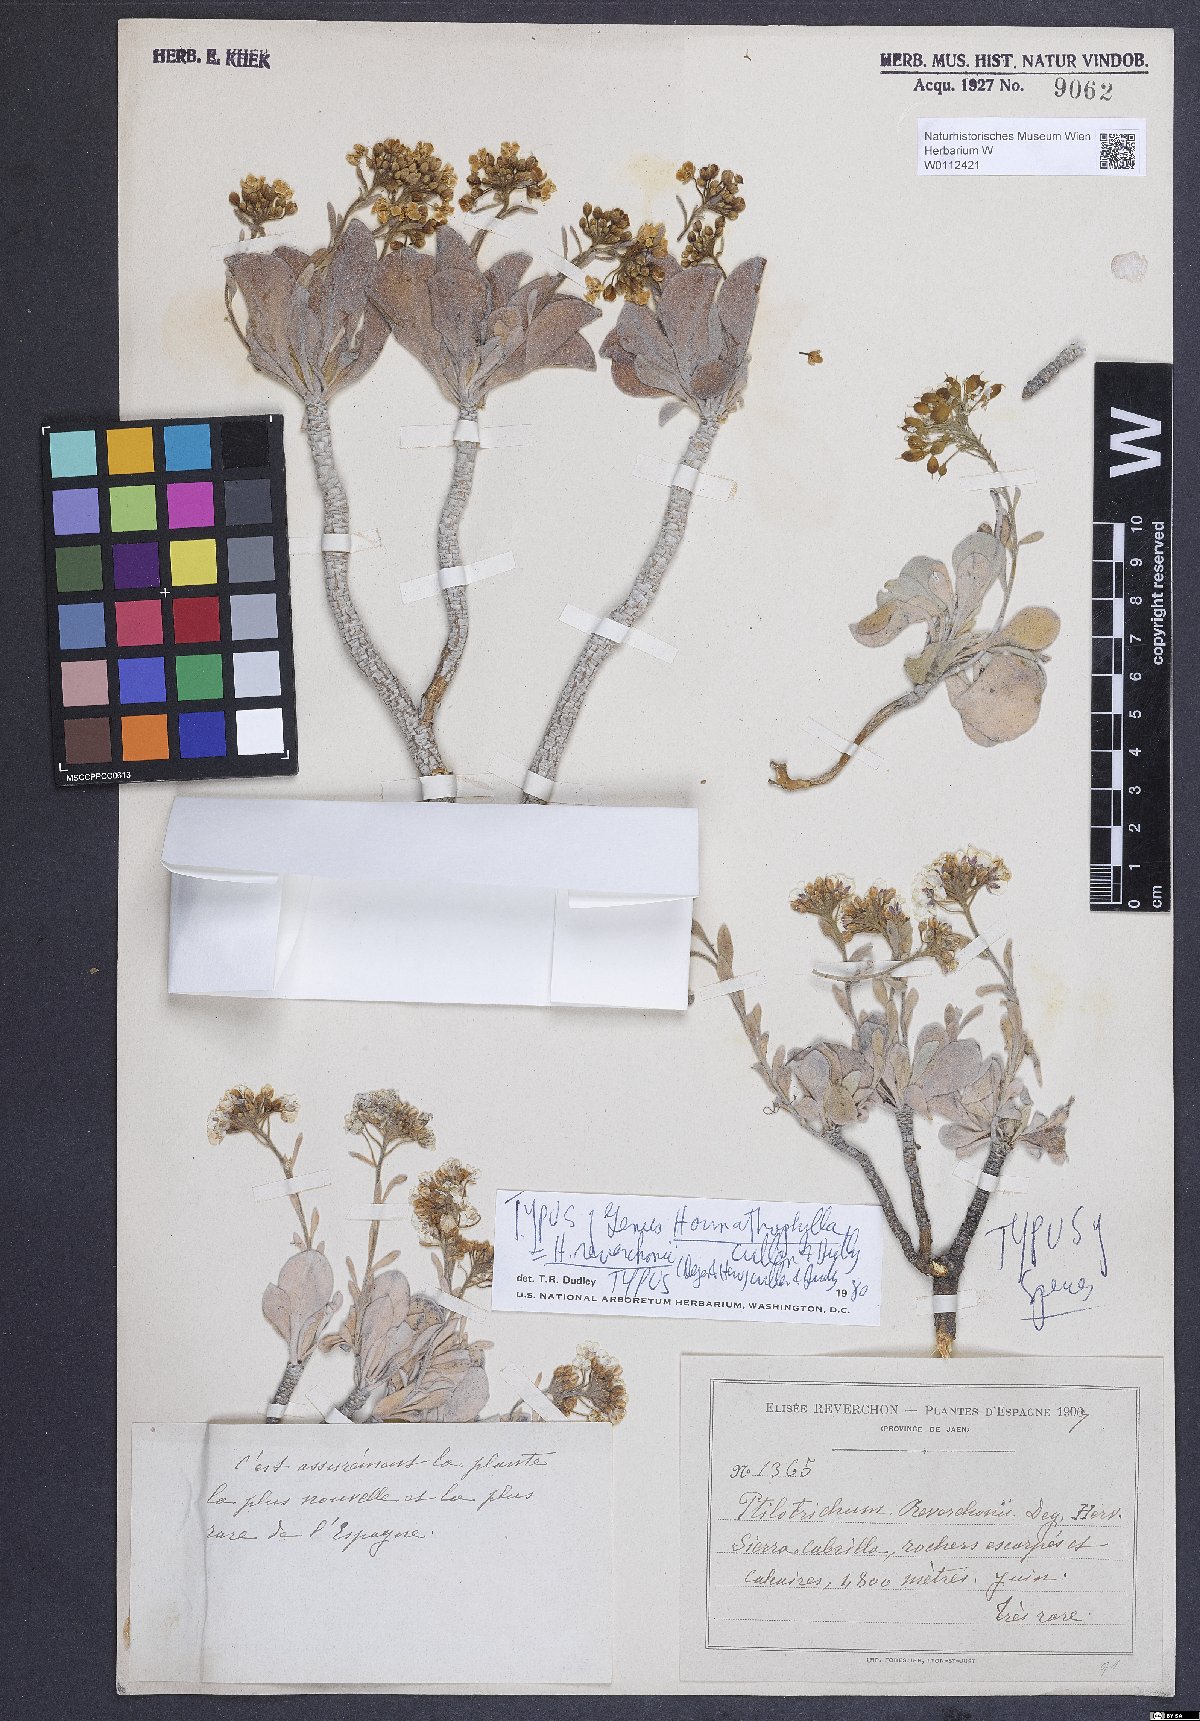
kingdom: Plantae
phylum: Tracheophyta
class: Magnoliopsida
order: Brassicales
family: Brassicaceae
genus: Hormathophylla
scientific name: Hormathophylla reverchonii
